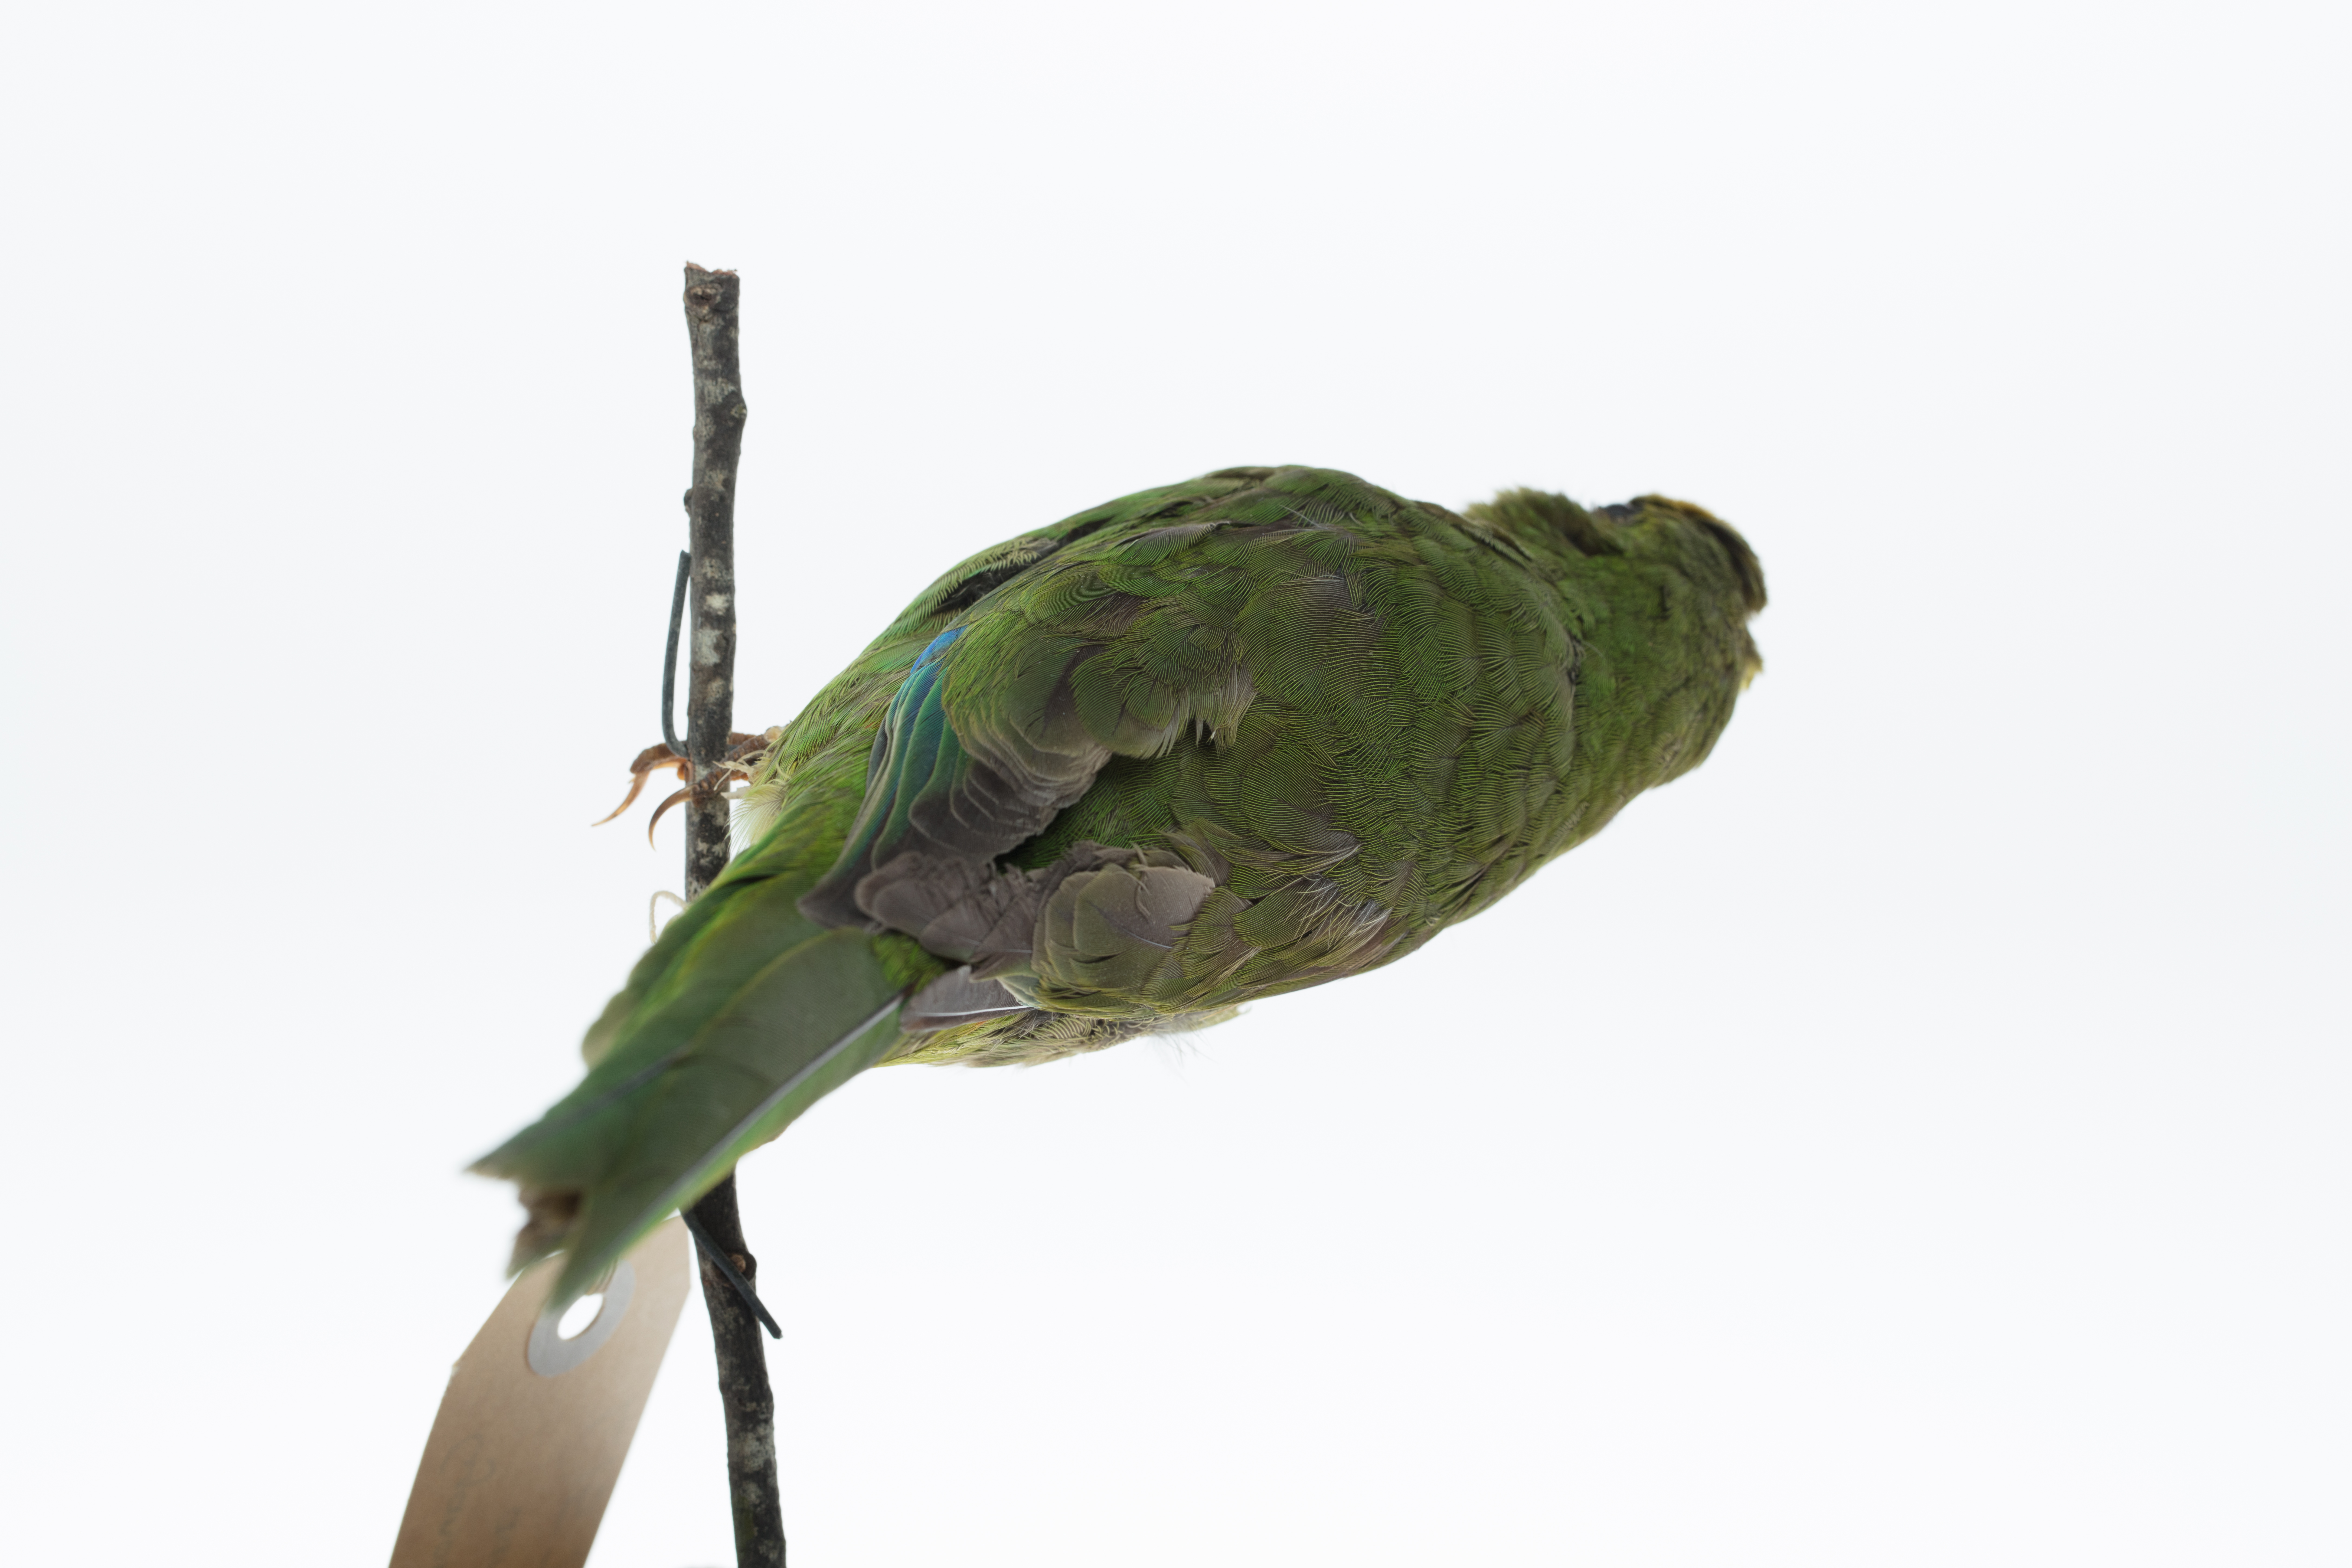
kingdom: Animalia
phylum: Chordata
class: Aves
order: Psittaciformes
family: Psittacidae
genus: Cyanoramphus
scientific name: Cyanoramphus auriceps
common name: Yellow-crowned parakeet
